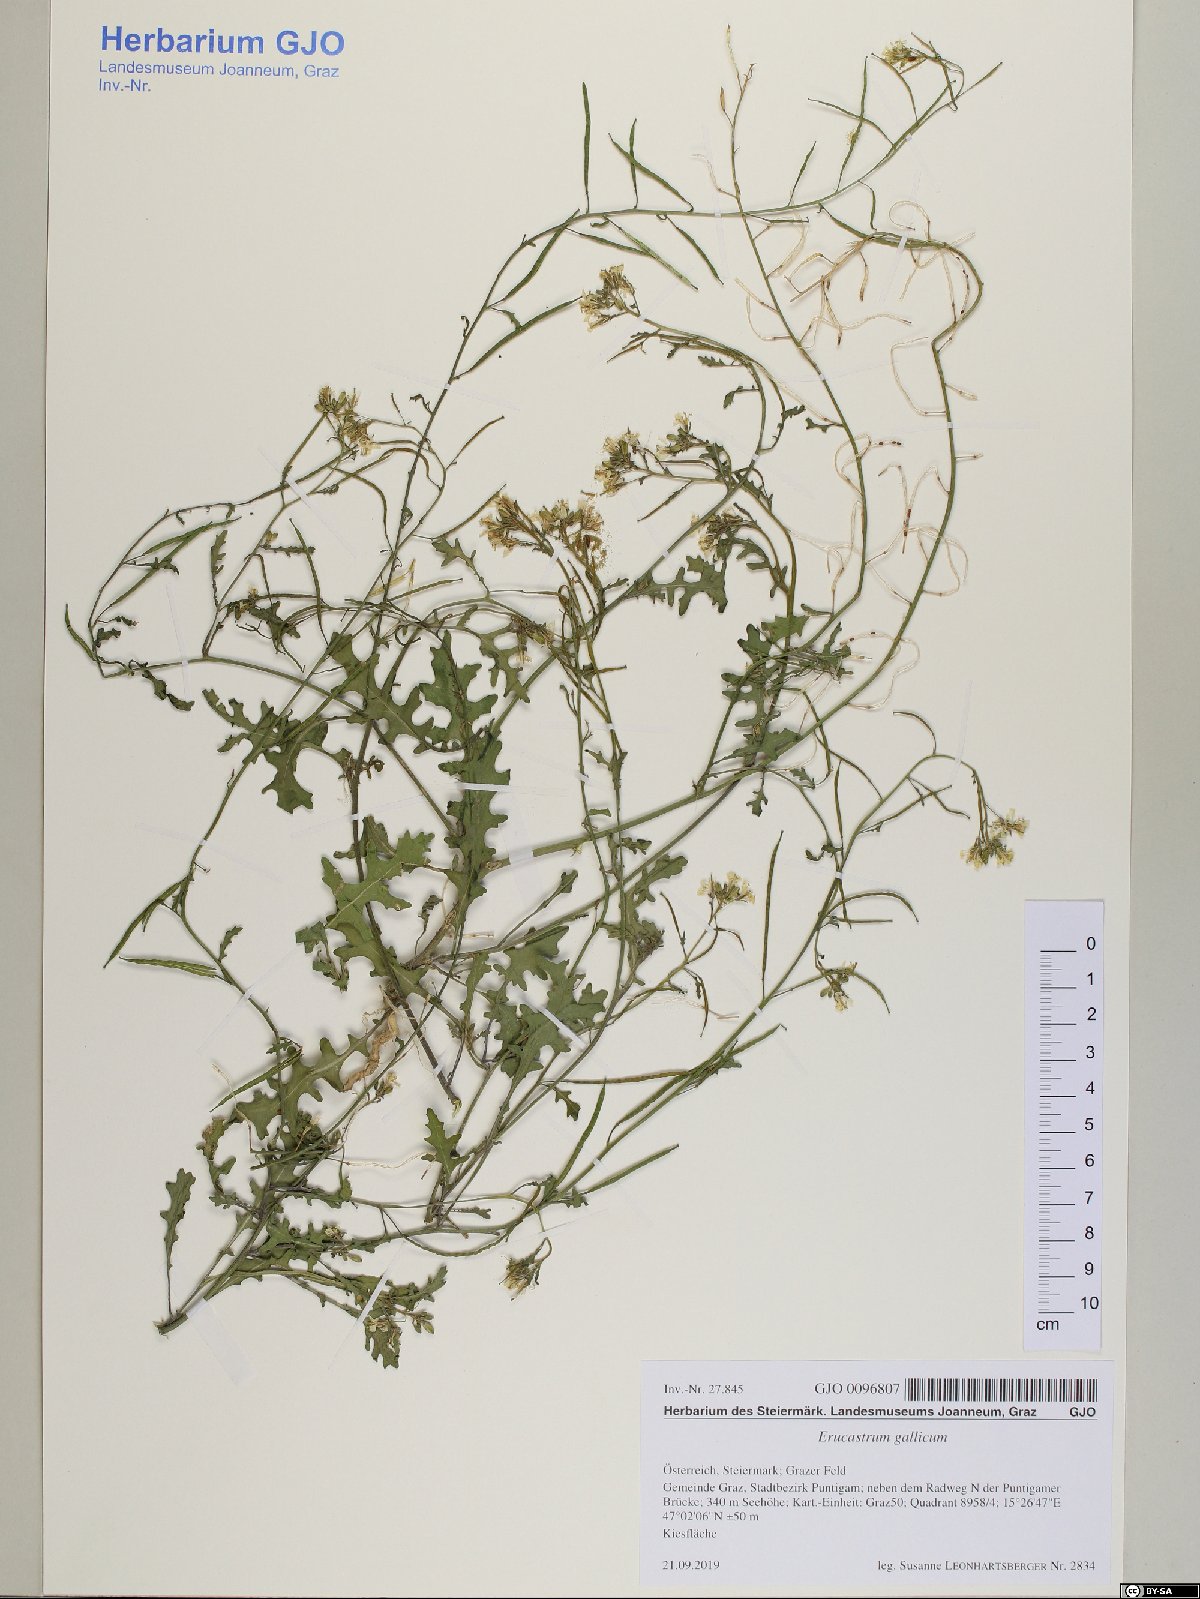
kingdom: Plantae
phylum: Tracheophyta
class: Magnoliopsida
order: Brassicales
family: Brassicaceae
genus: Erucastrum
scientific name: Erucastrum gallicum
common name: Hairy rocket
